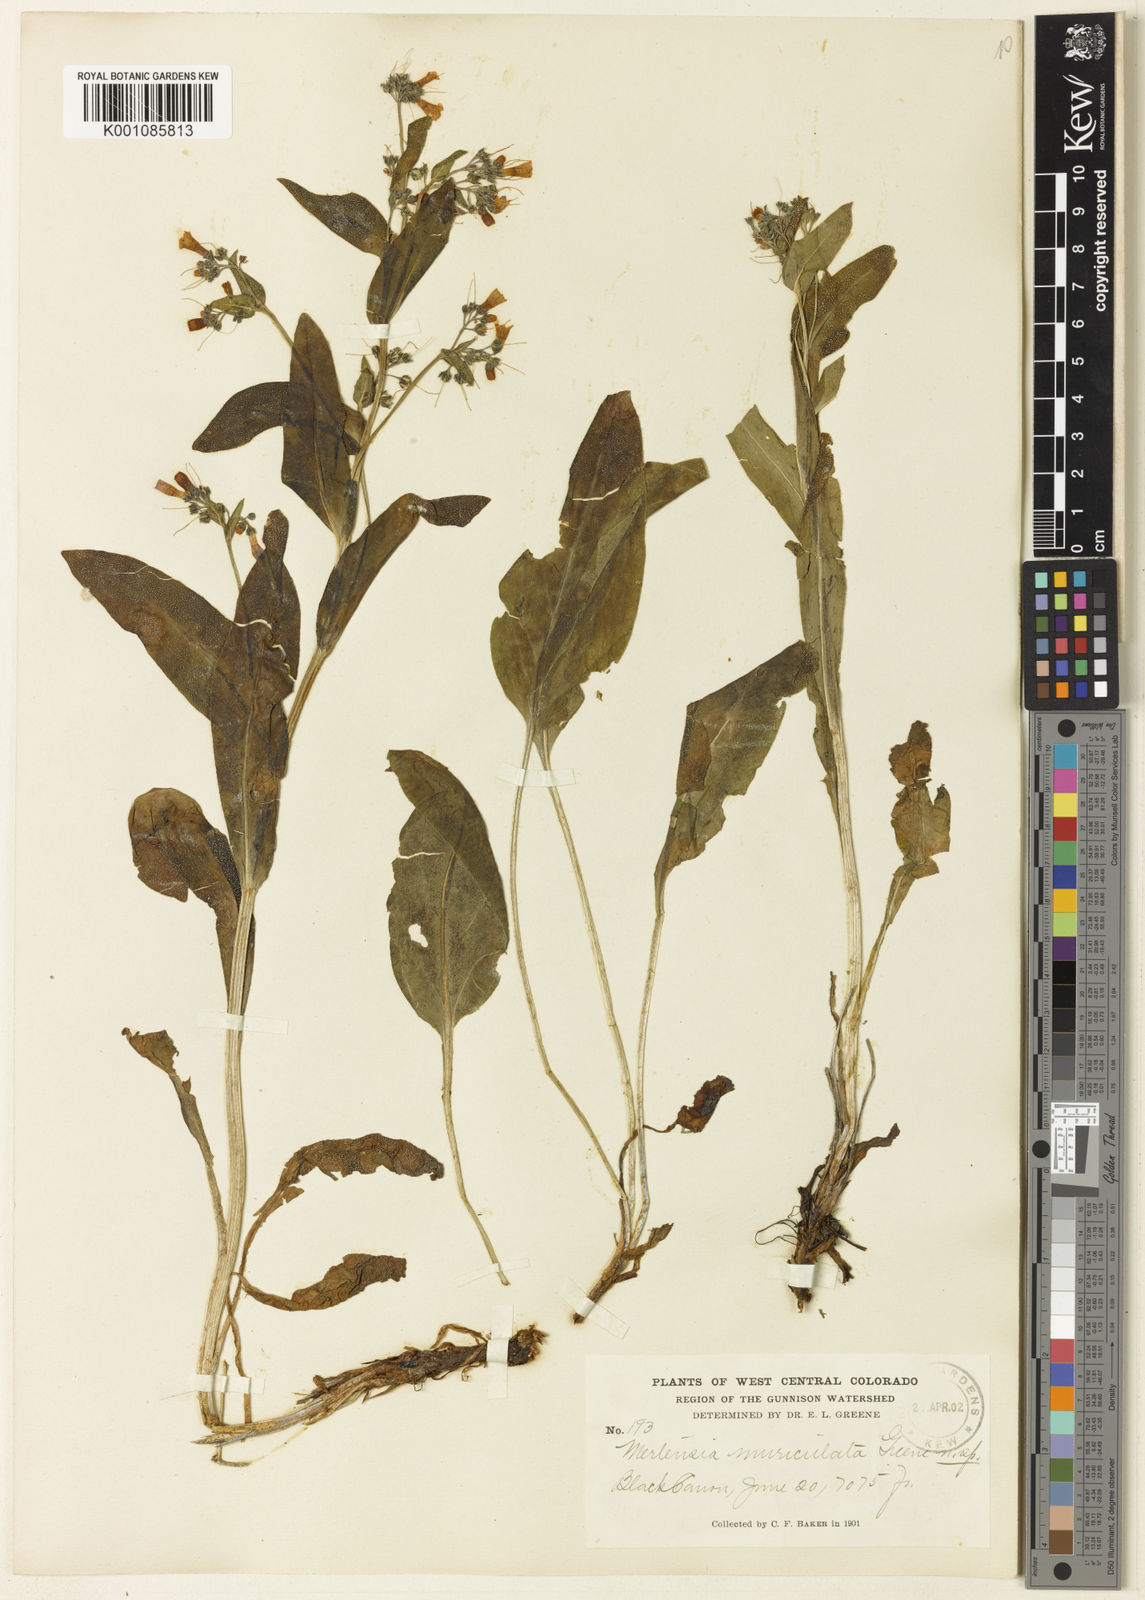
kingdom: Plantae
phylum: Tracheophyta
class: Magnoliopsida
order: Boraginales
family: Boraginaceae
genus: Mertensia
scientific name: Mertensia cynoglossoides
